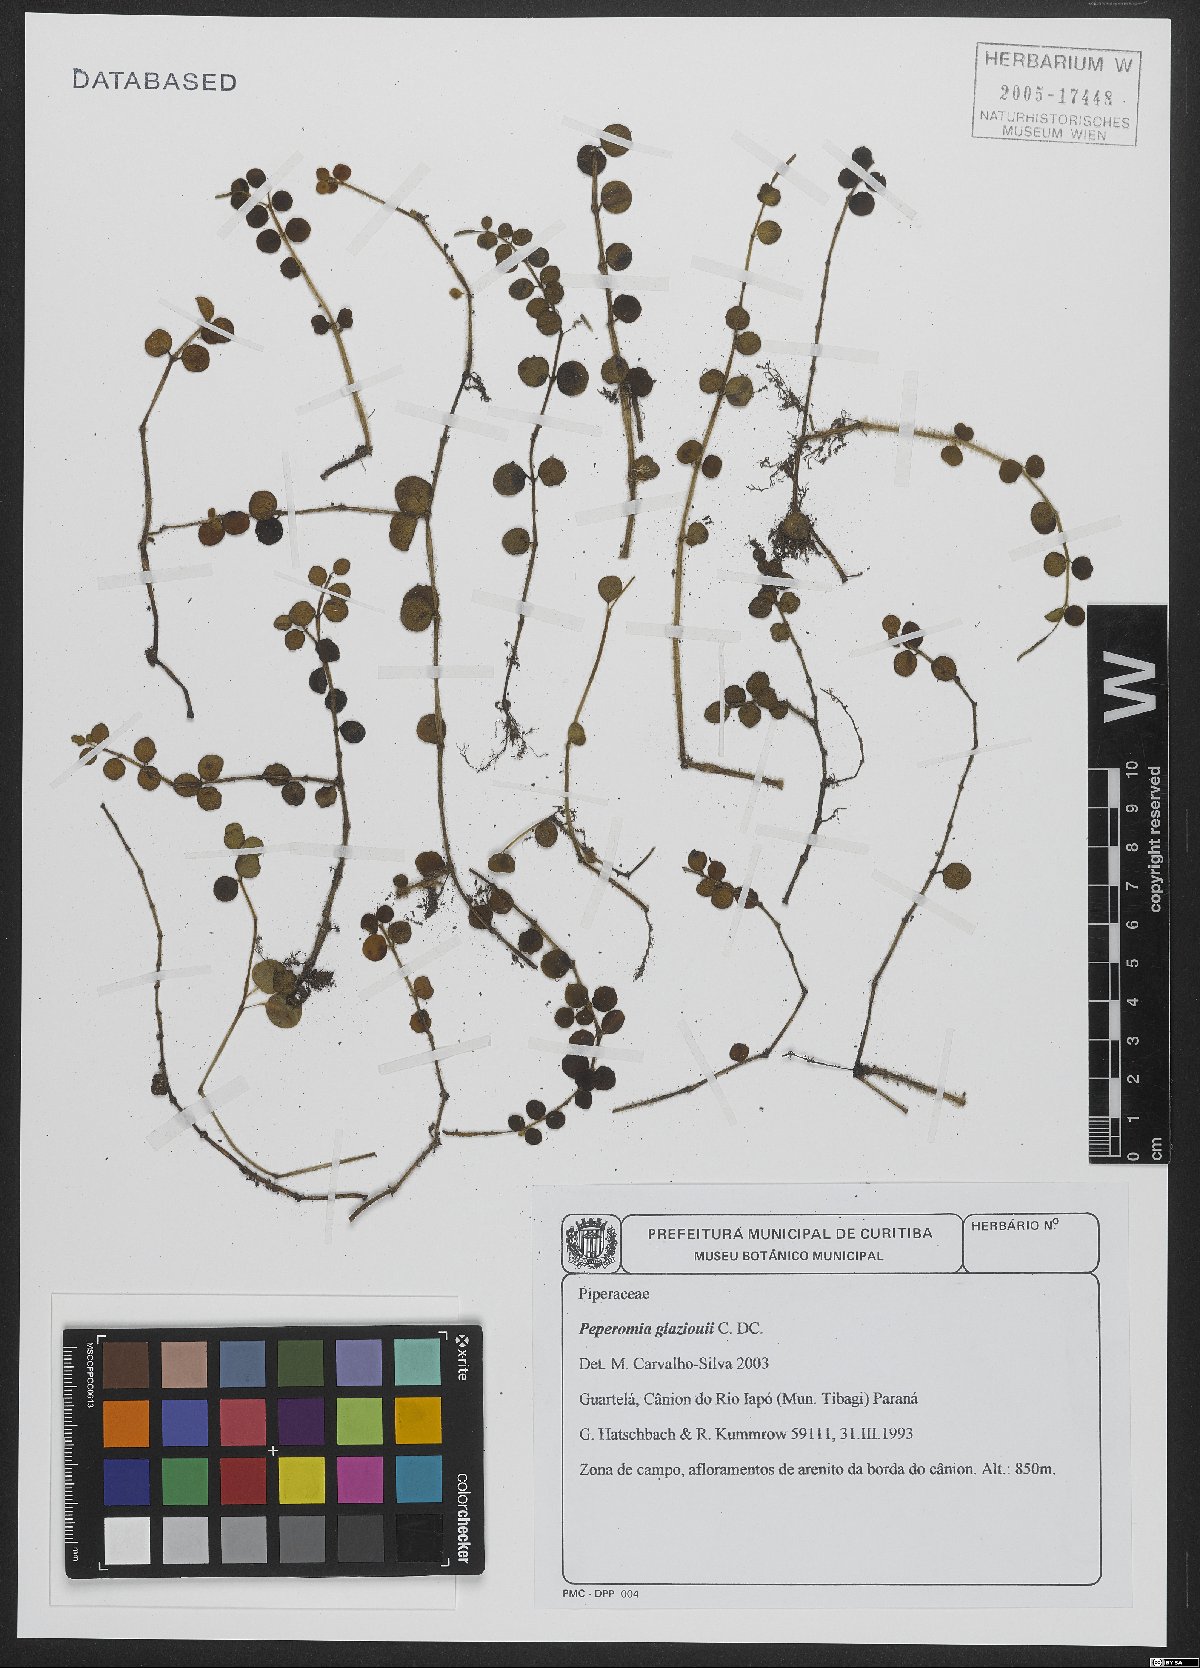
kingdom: Plantae
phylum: Tracheophyta
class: Magnoliopsida
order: Piperales
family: Piperaceae
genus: Peperomia
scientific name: Peperomia glaziovii
